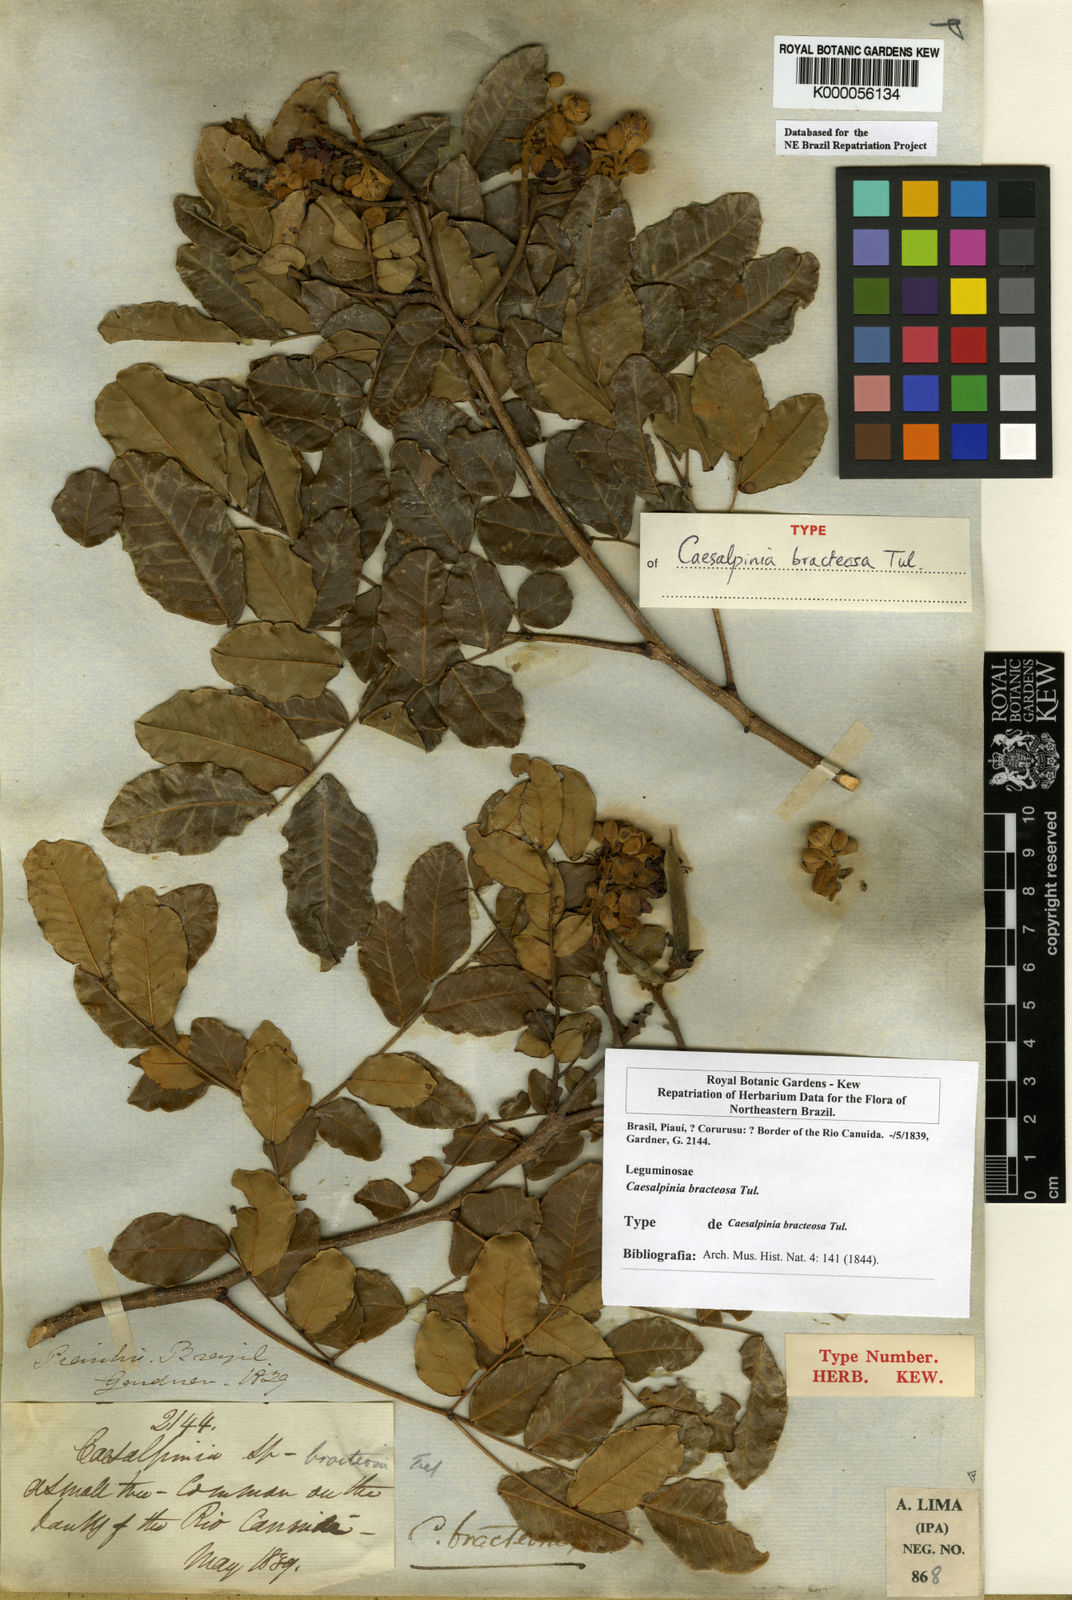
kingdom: Plantae
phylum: Tracheophyta
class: Magnoliopsida
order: Fabales
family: Fabaceae
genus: Cenostigma
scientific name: Cenostigma bracteosum
